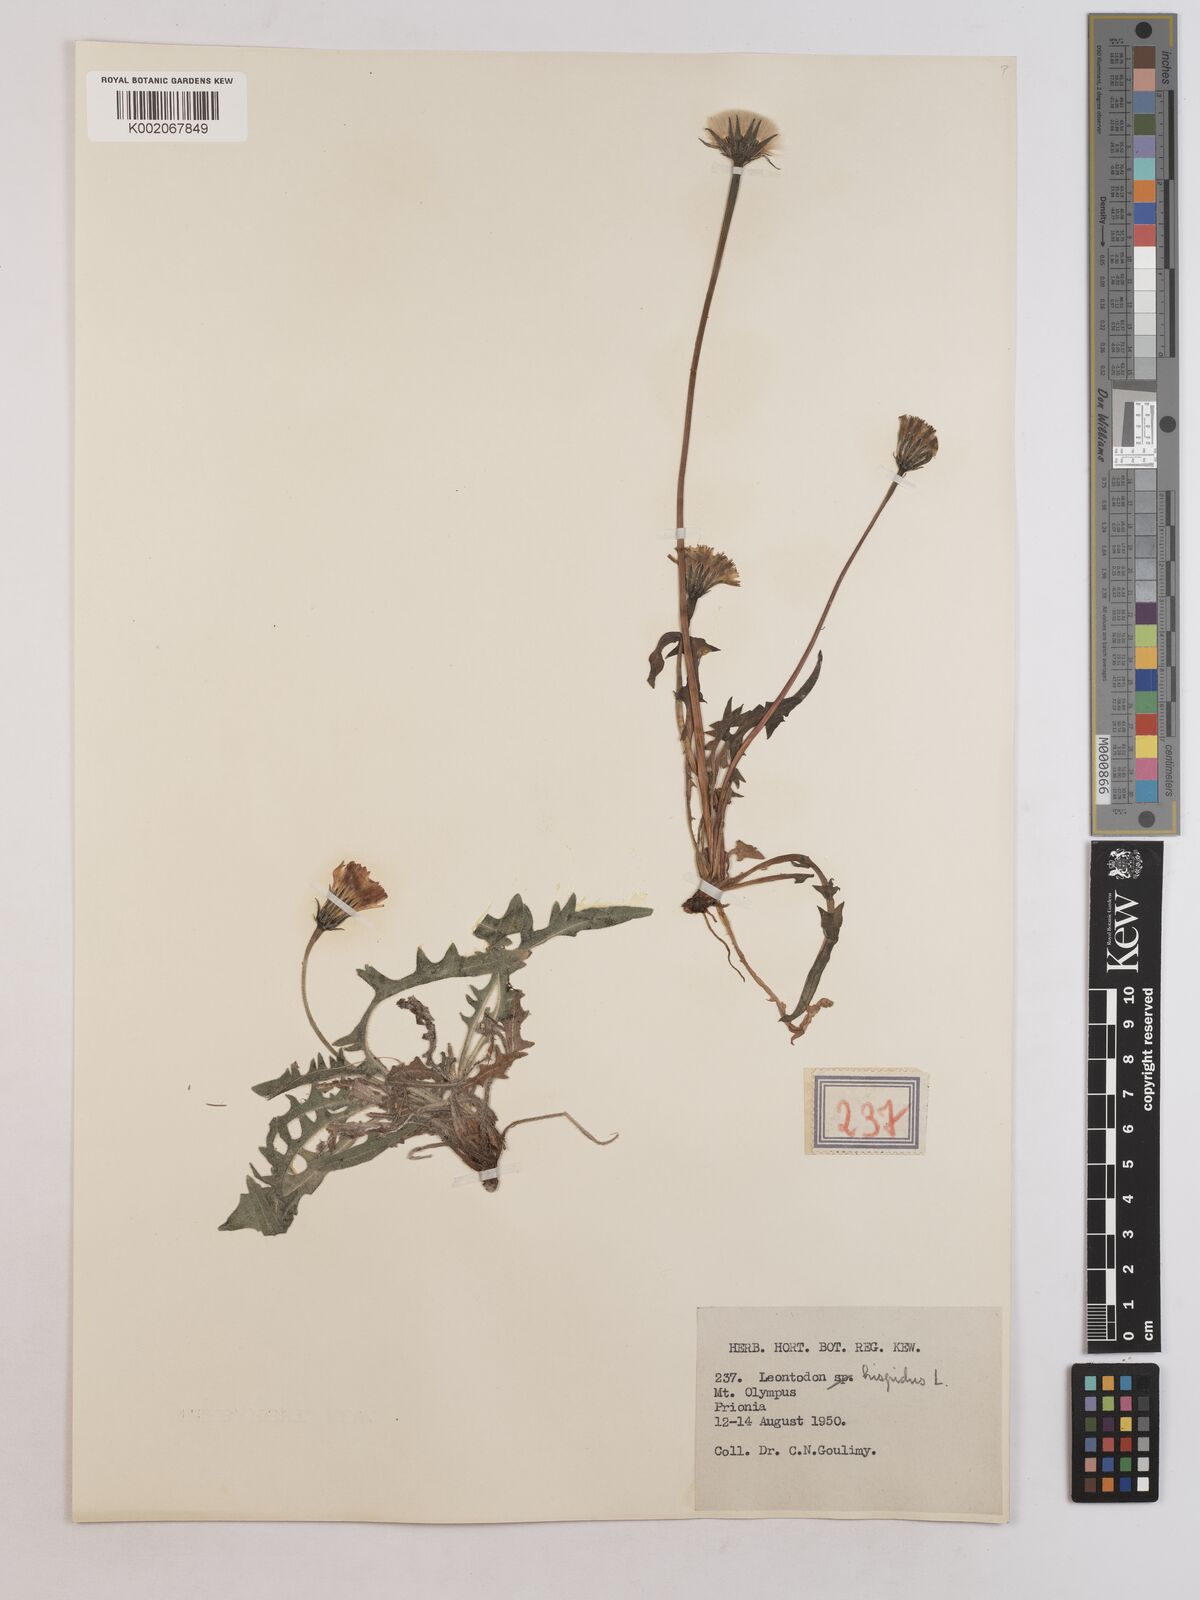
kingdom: Plantae
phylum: Tracheophyta
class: Magnoliopsida
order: Asterales
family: Asteraceae
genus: Leontodon
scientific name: Leontodon hispidus
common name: Rough hawkbit
